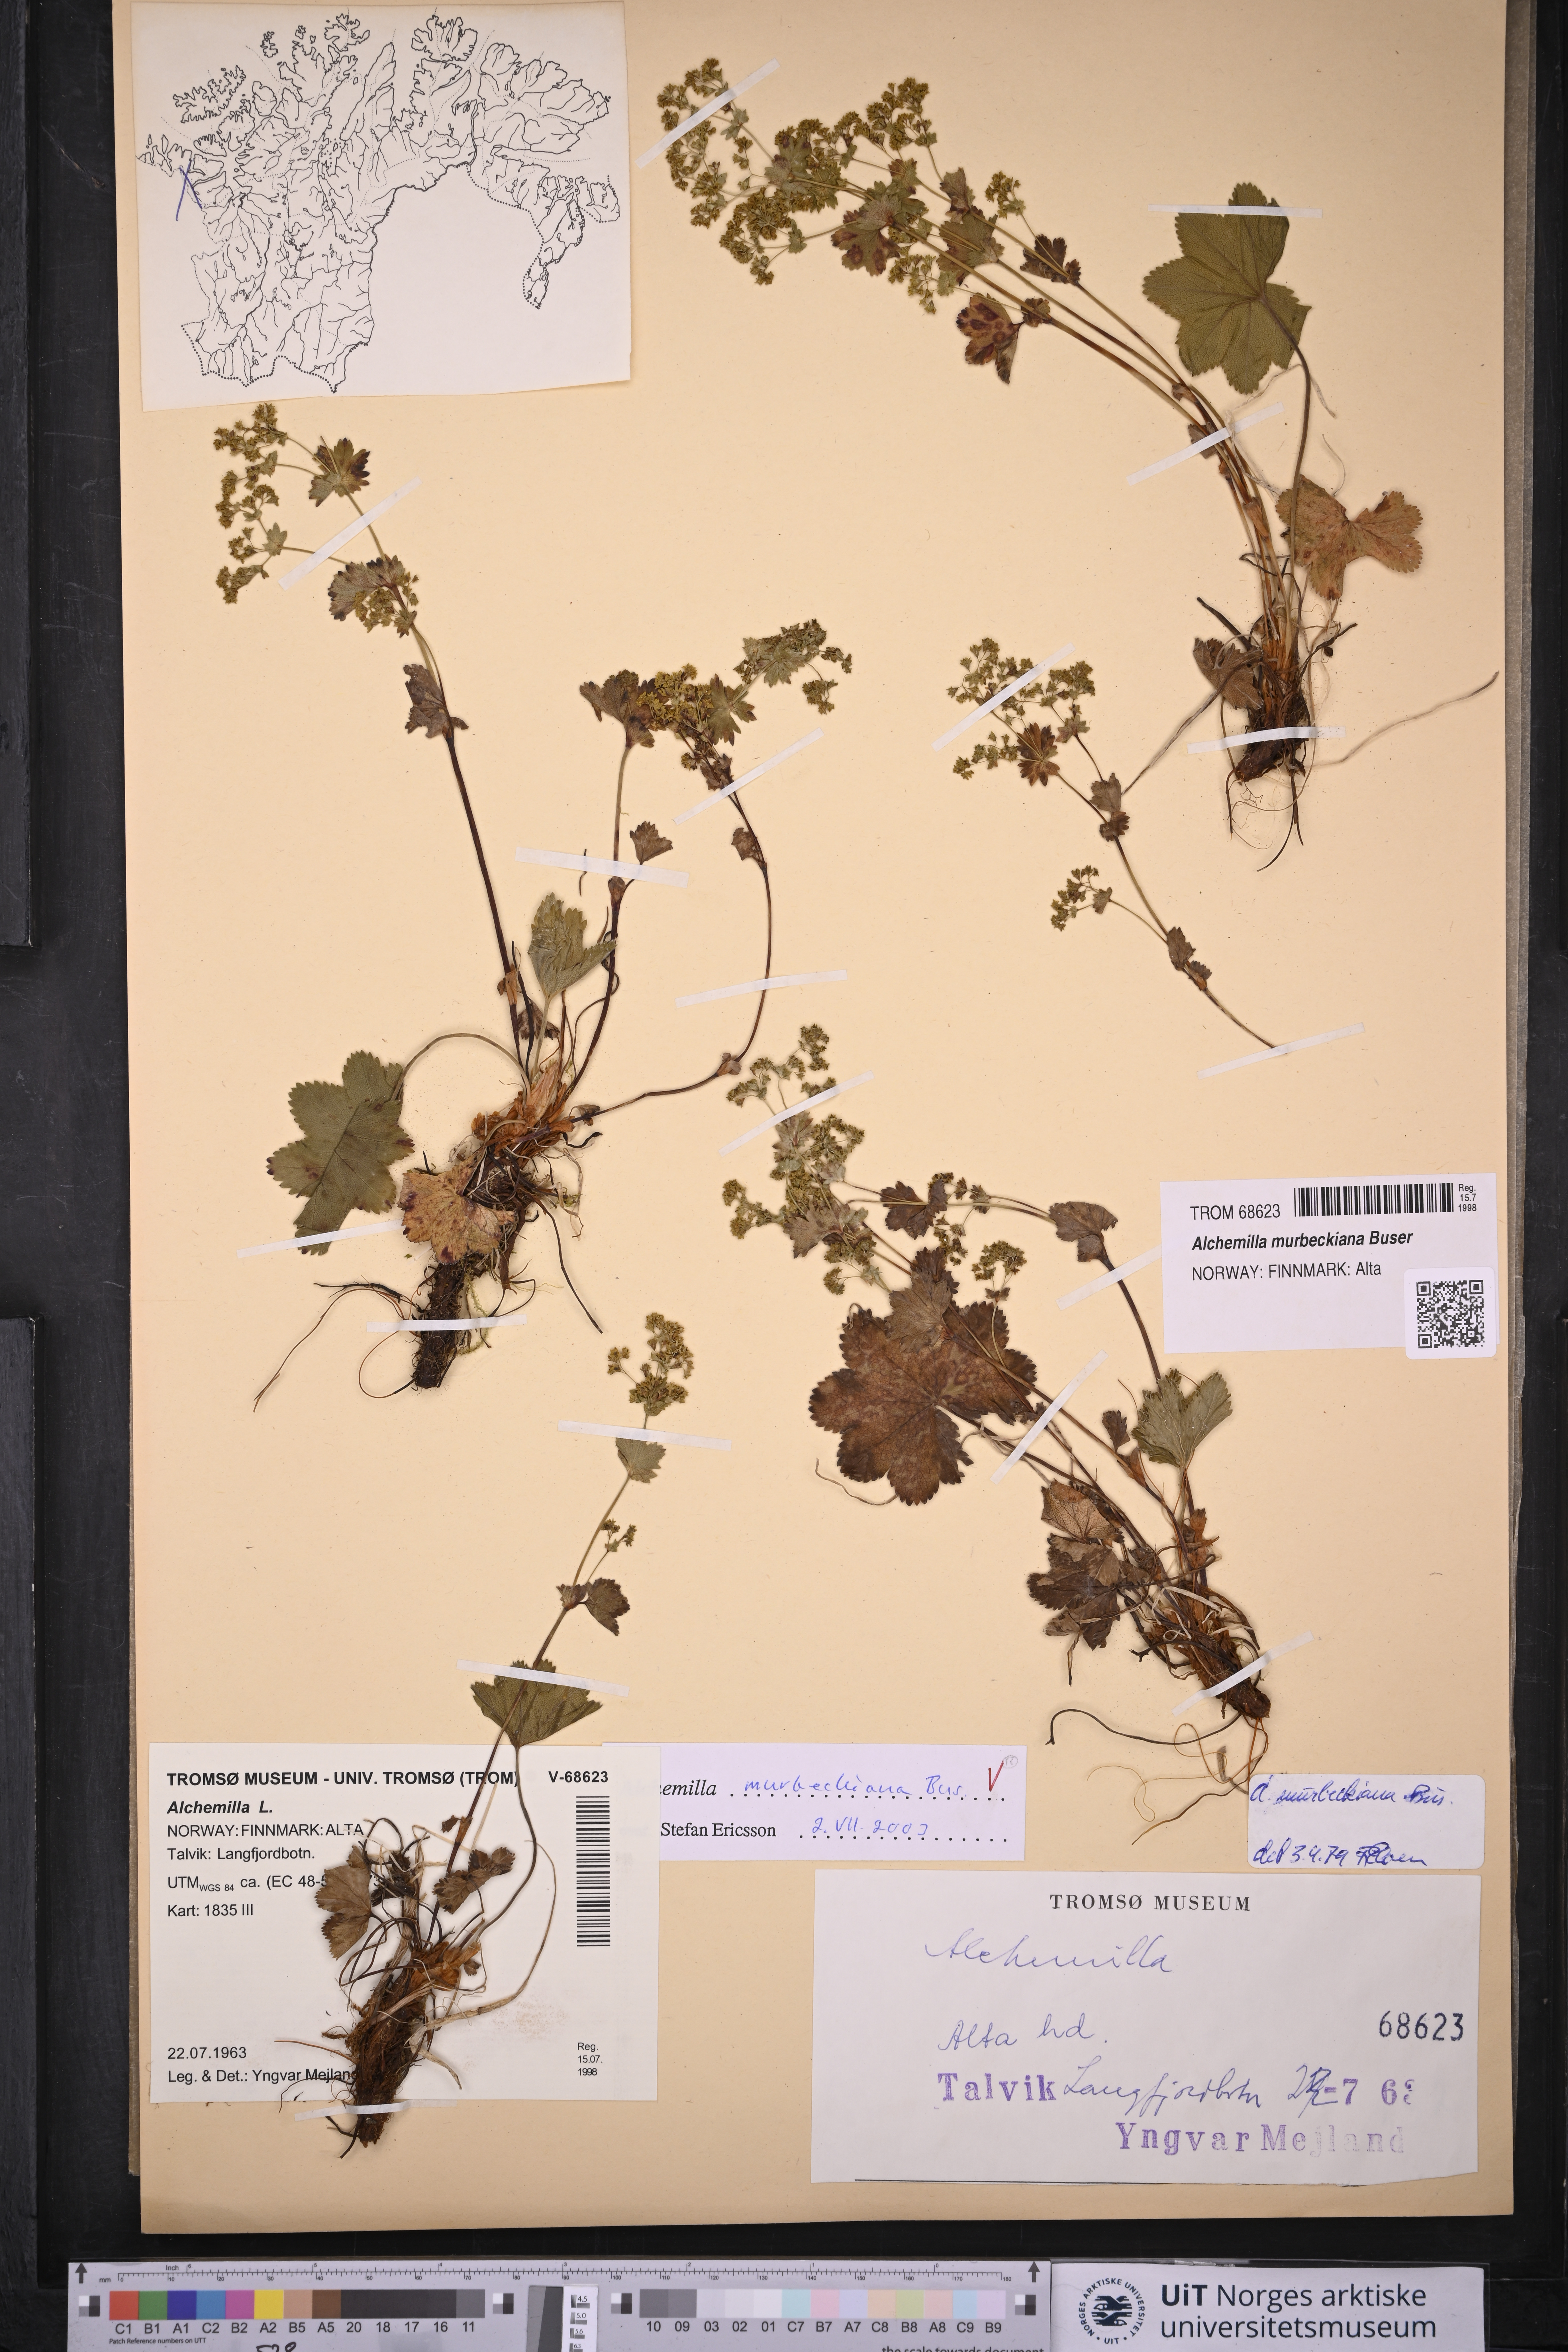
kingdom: Plantae
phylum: Tracheophyta
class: Magnoliopsida
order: Rosales
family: Rosaceae
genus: Alchemilla
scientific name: Alchemilla murbeckiana
